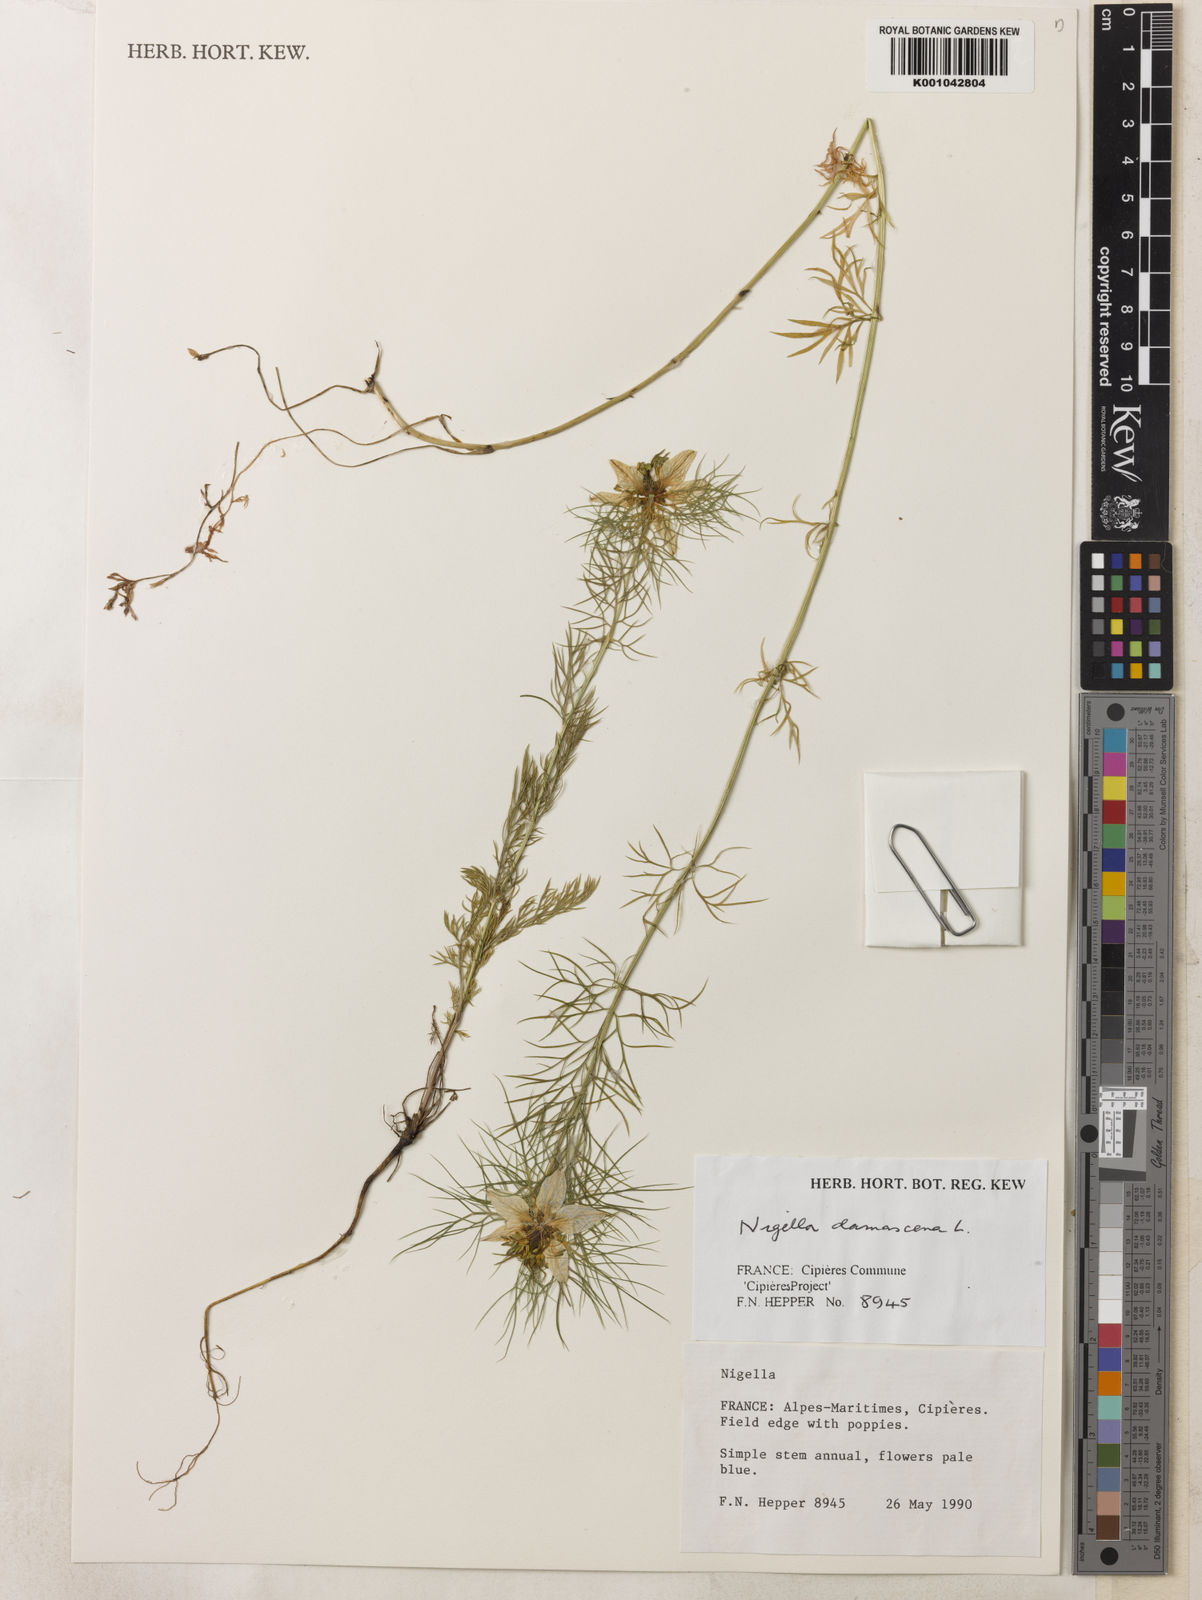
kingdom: Plantae
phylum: Tracheophyta
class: Magnoliopsida
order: Ranunculales
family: Ranunculaceae
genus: Nigella
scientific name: Nigella damascena
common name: Love-in-a-mist
